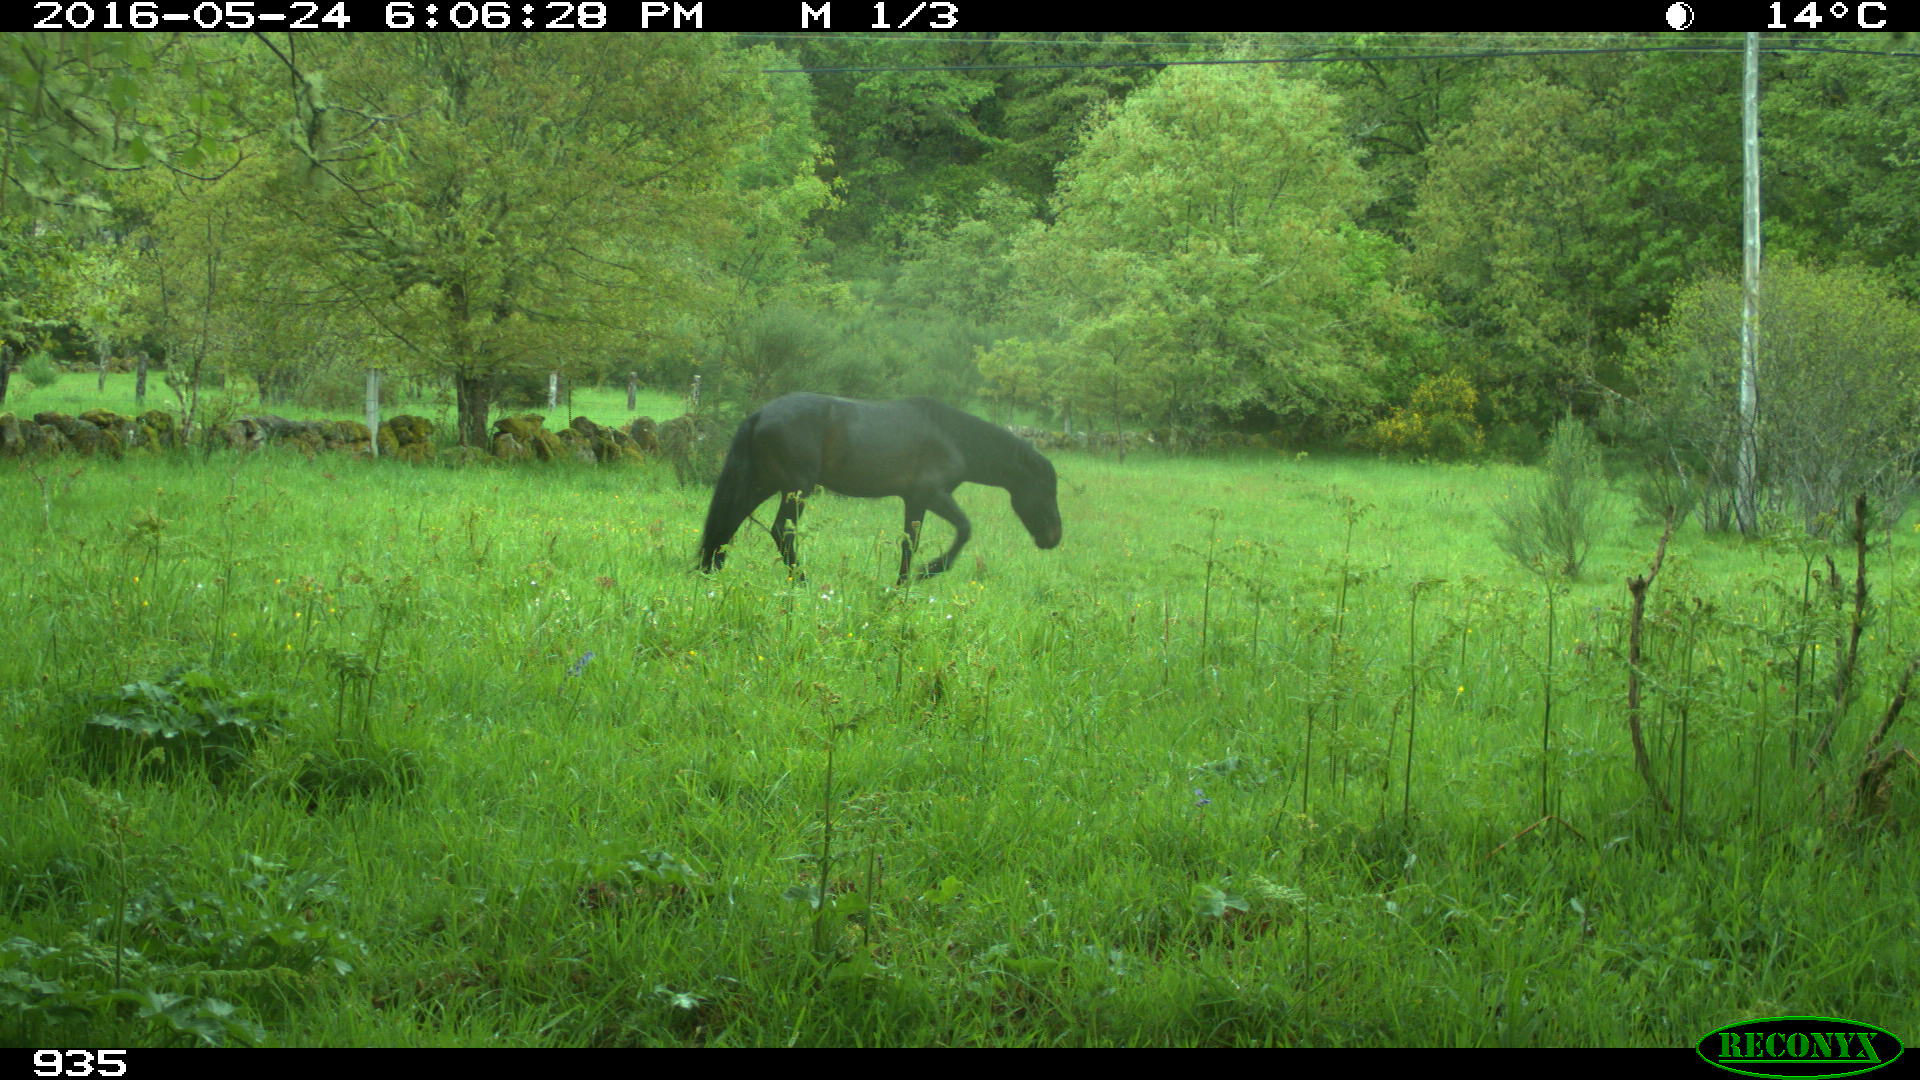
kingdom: Animalia
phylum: Chordata
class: Mammalia
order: Perissodactyla
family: Equidae
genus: Equus
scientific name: Equus caballus
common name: Horse
